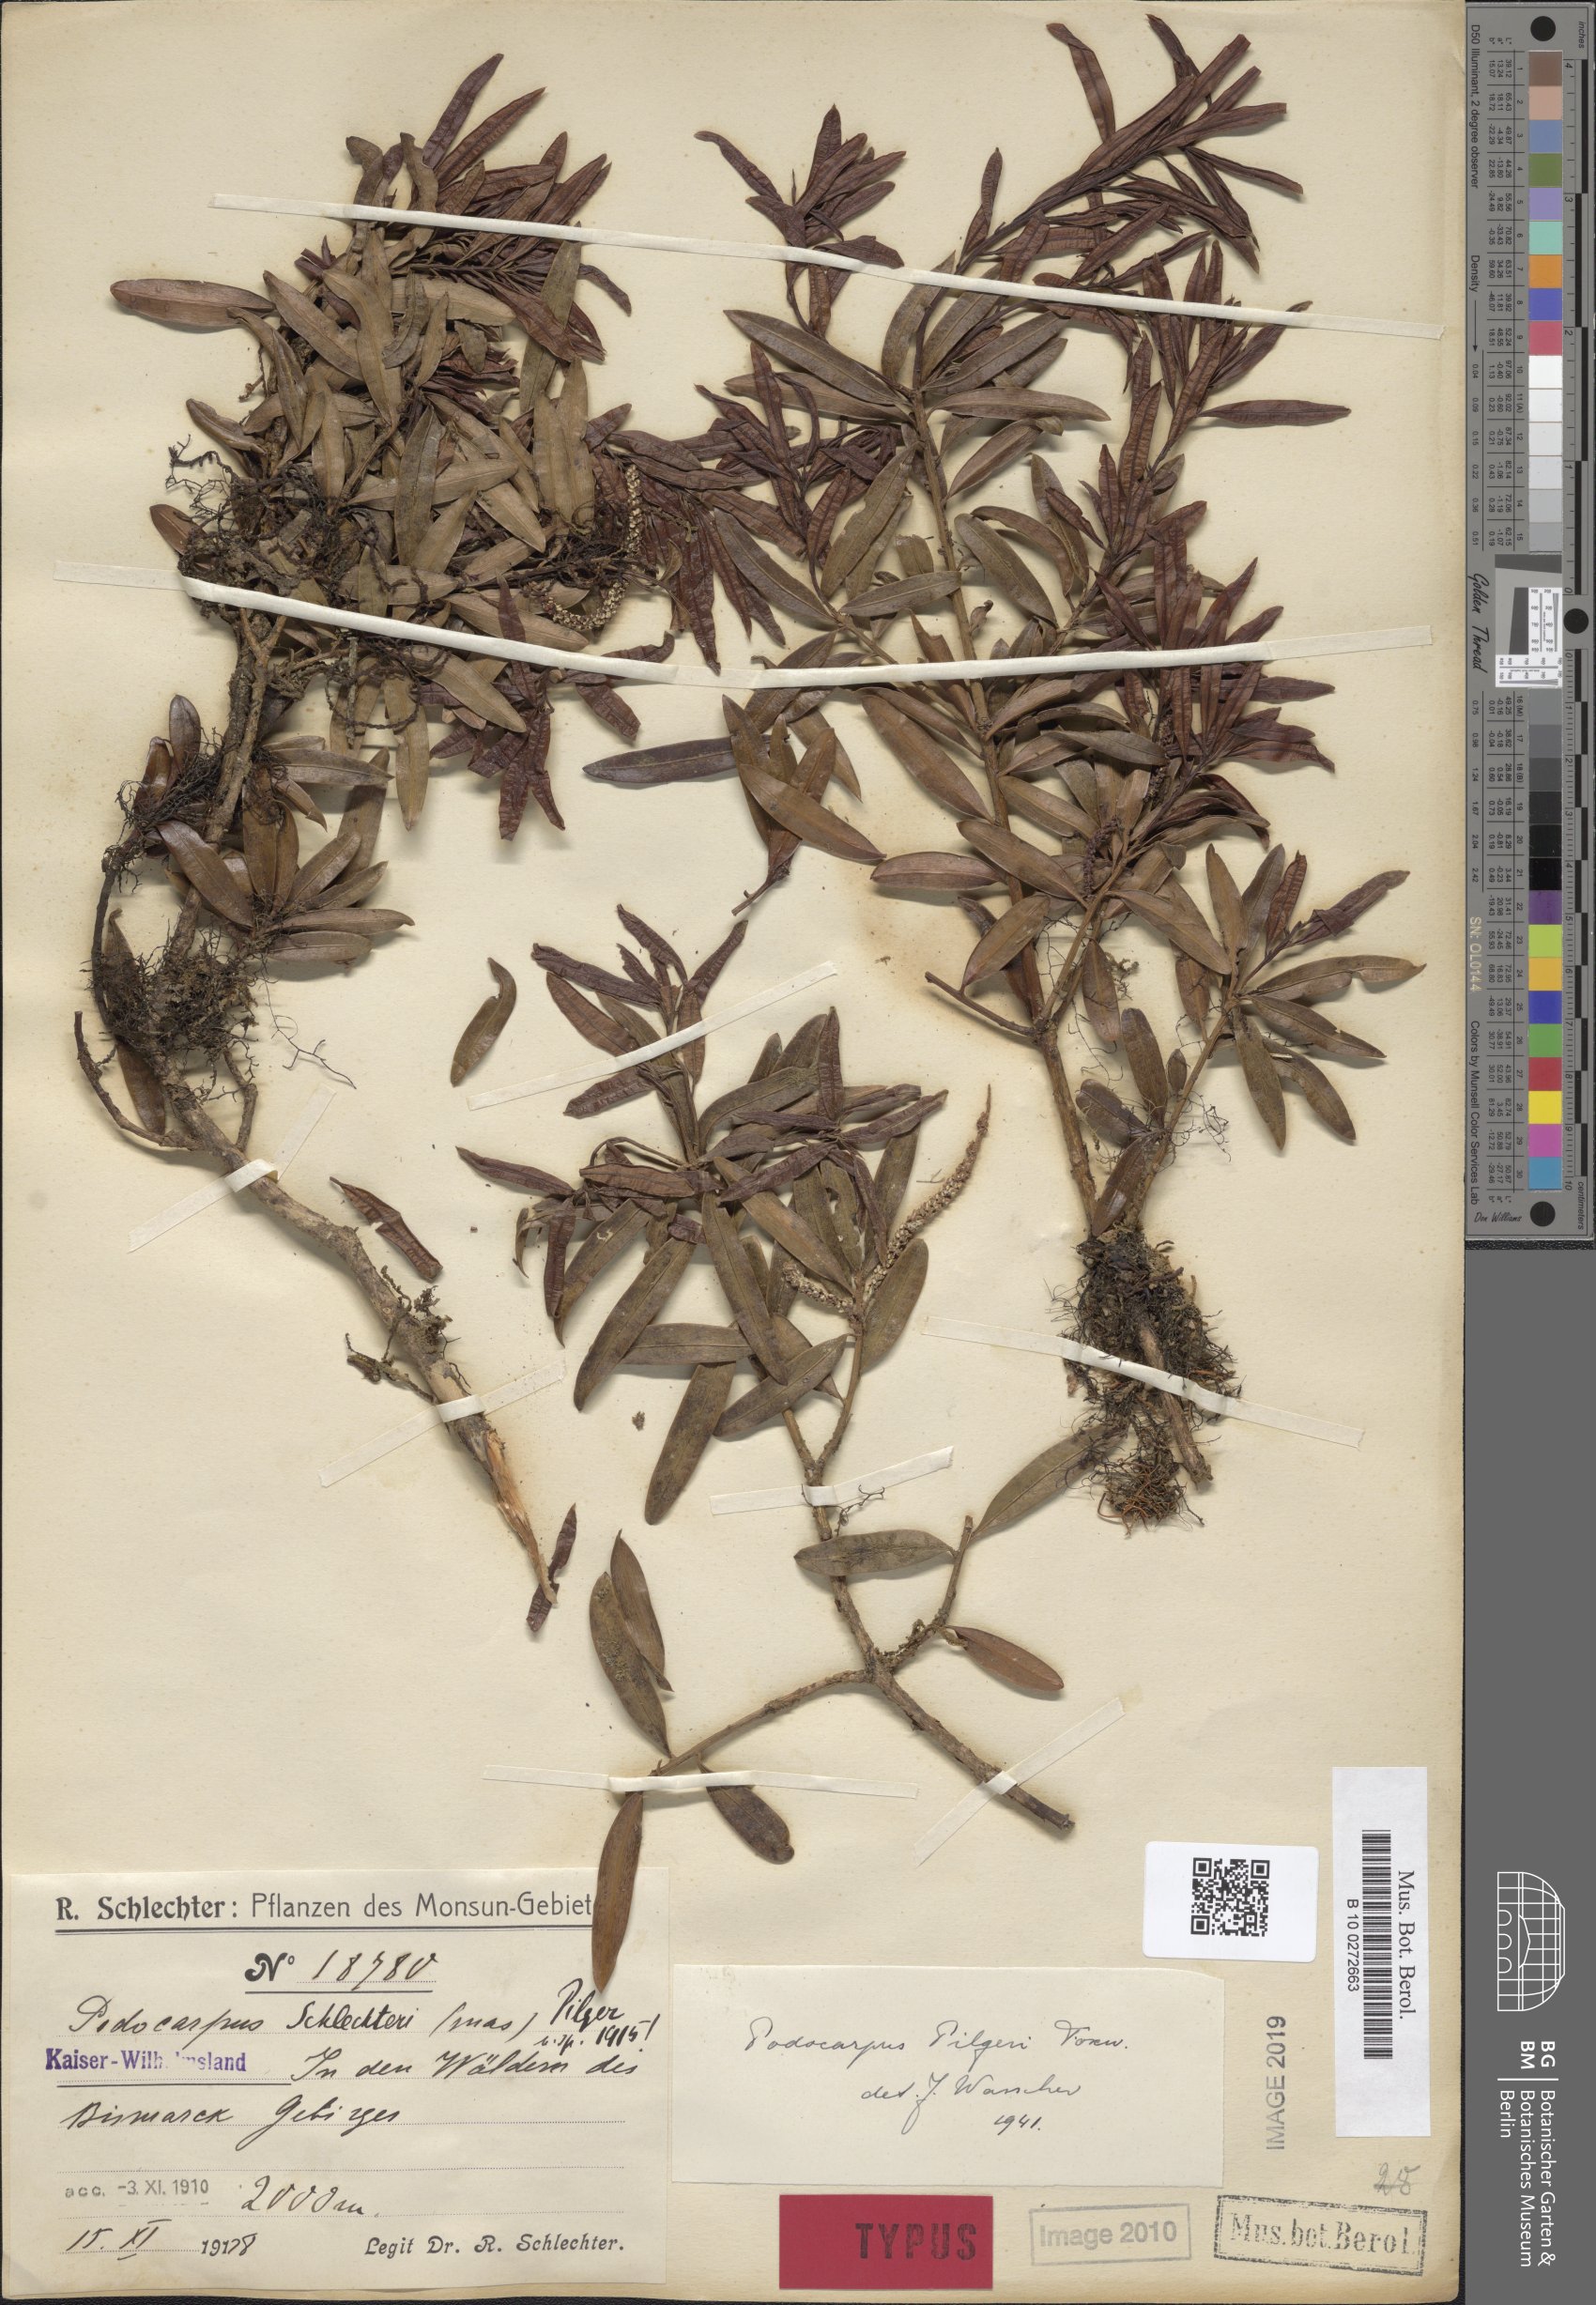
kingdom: Plantae
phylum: Tracheophyta
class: Pinopsida
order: Pinales
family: Podocarpaceae
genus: Podocarpus
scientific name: Podocarpus pilgeri
